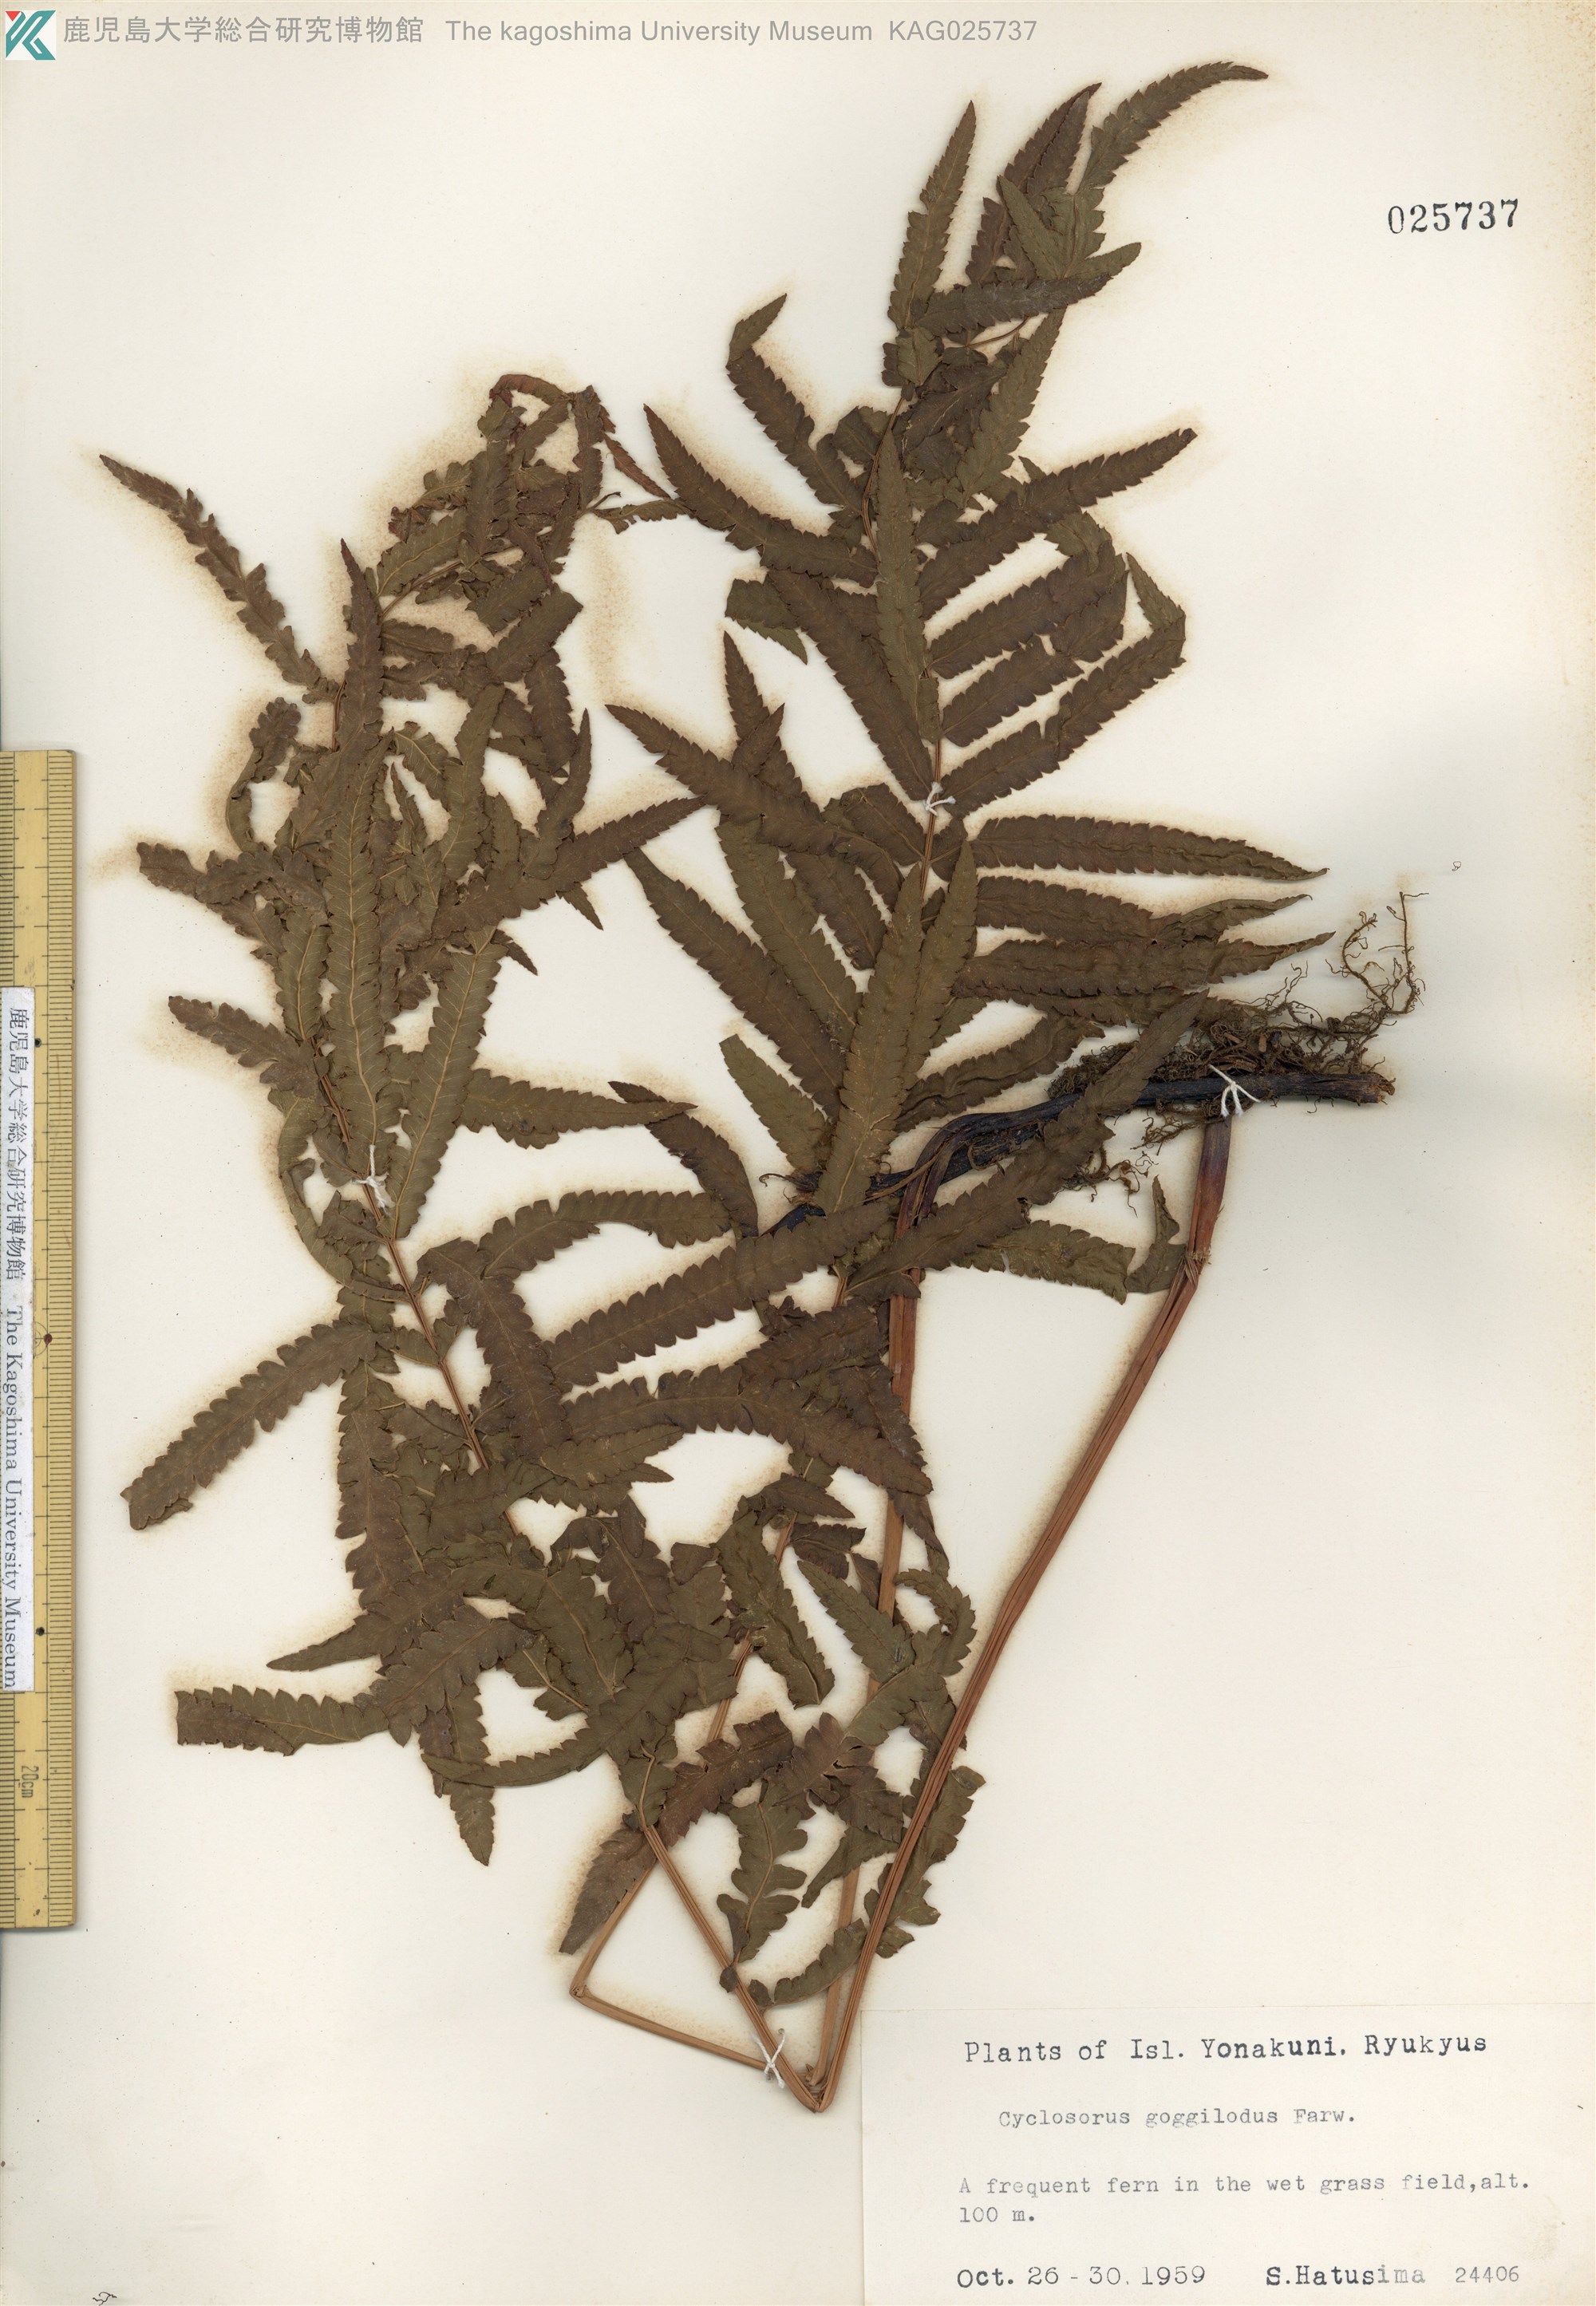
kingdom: Plantae
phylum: Tracheophyta
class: Polypodiopsida
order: Polypodiales
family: Thelypteridaceae
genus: Cyclosorus
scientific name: Cyclosorus interruptus
